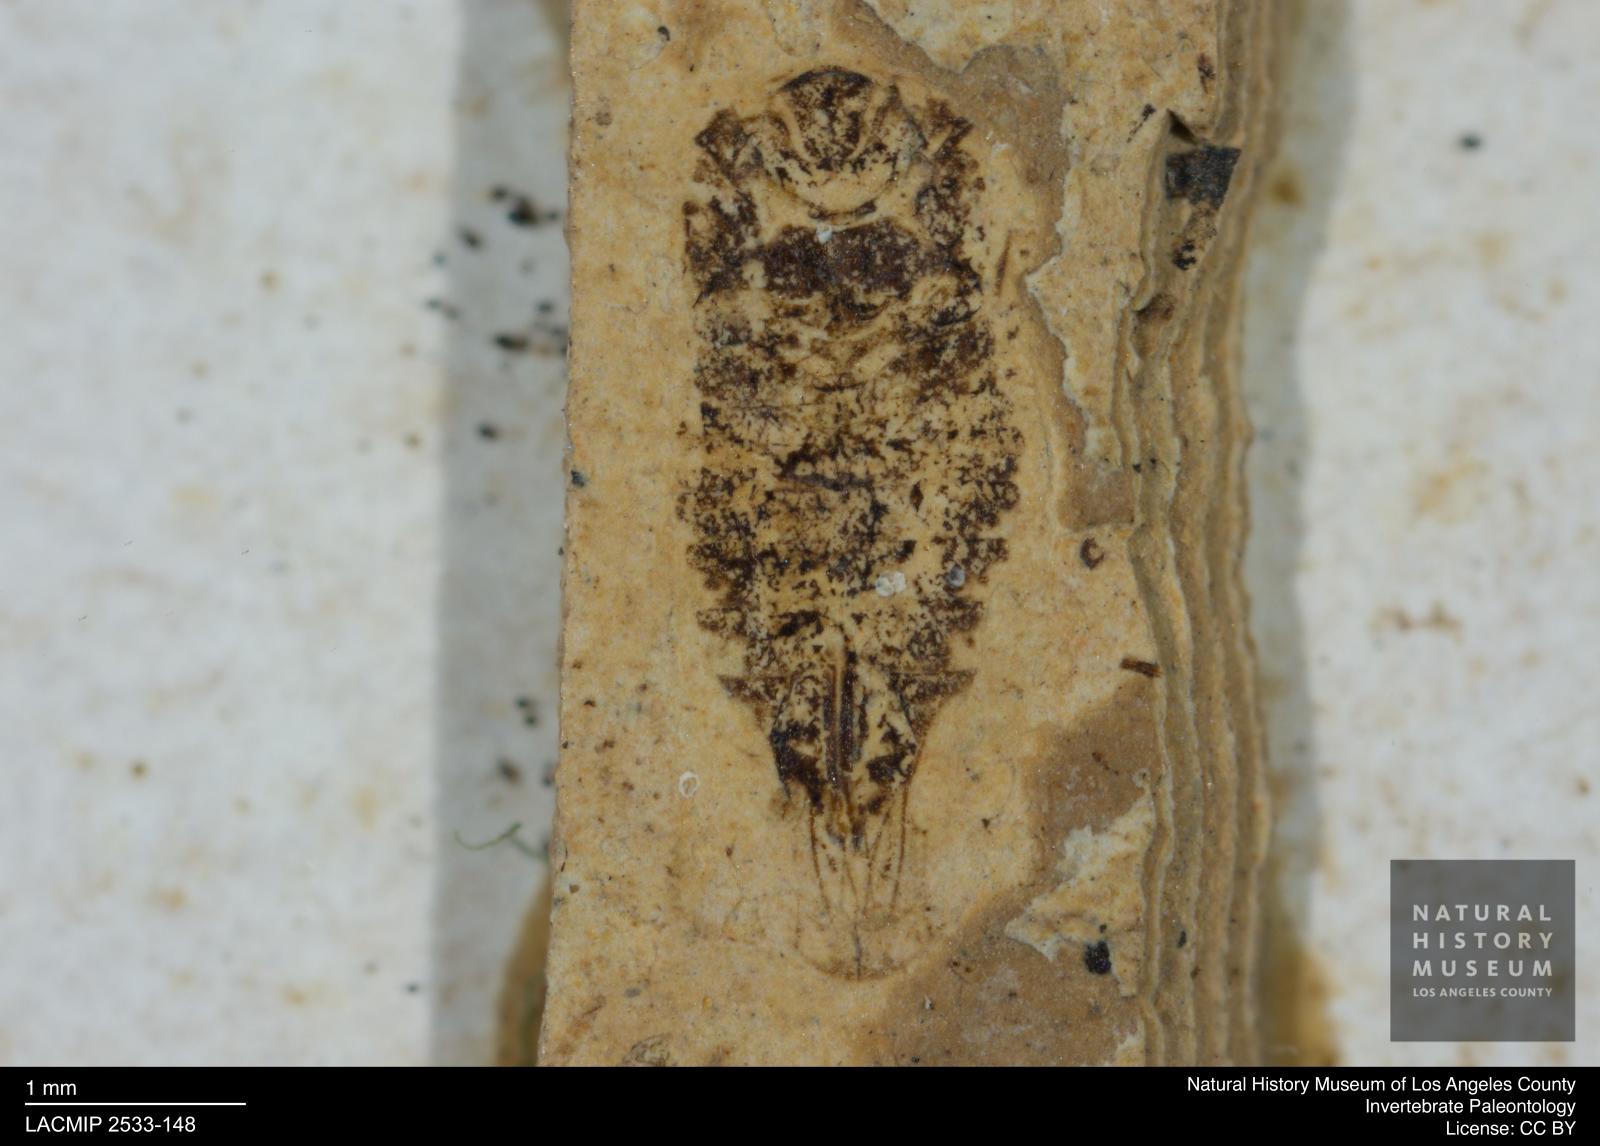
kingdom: Animalia
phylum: Arthropoda
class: Insecta
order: Hemiptera
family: Cicadellidae
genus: Iassus
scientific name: Iassus sepultus
